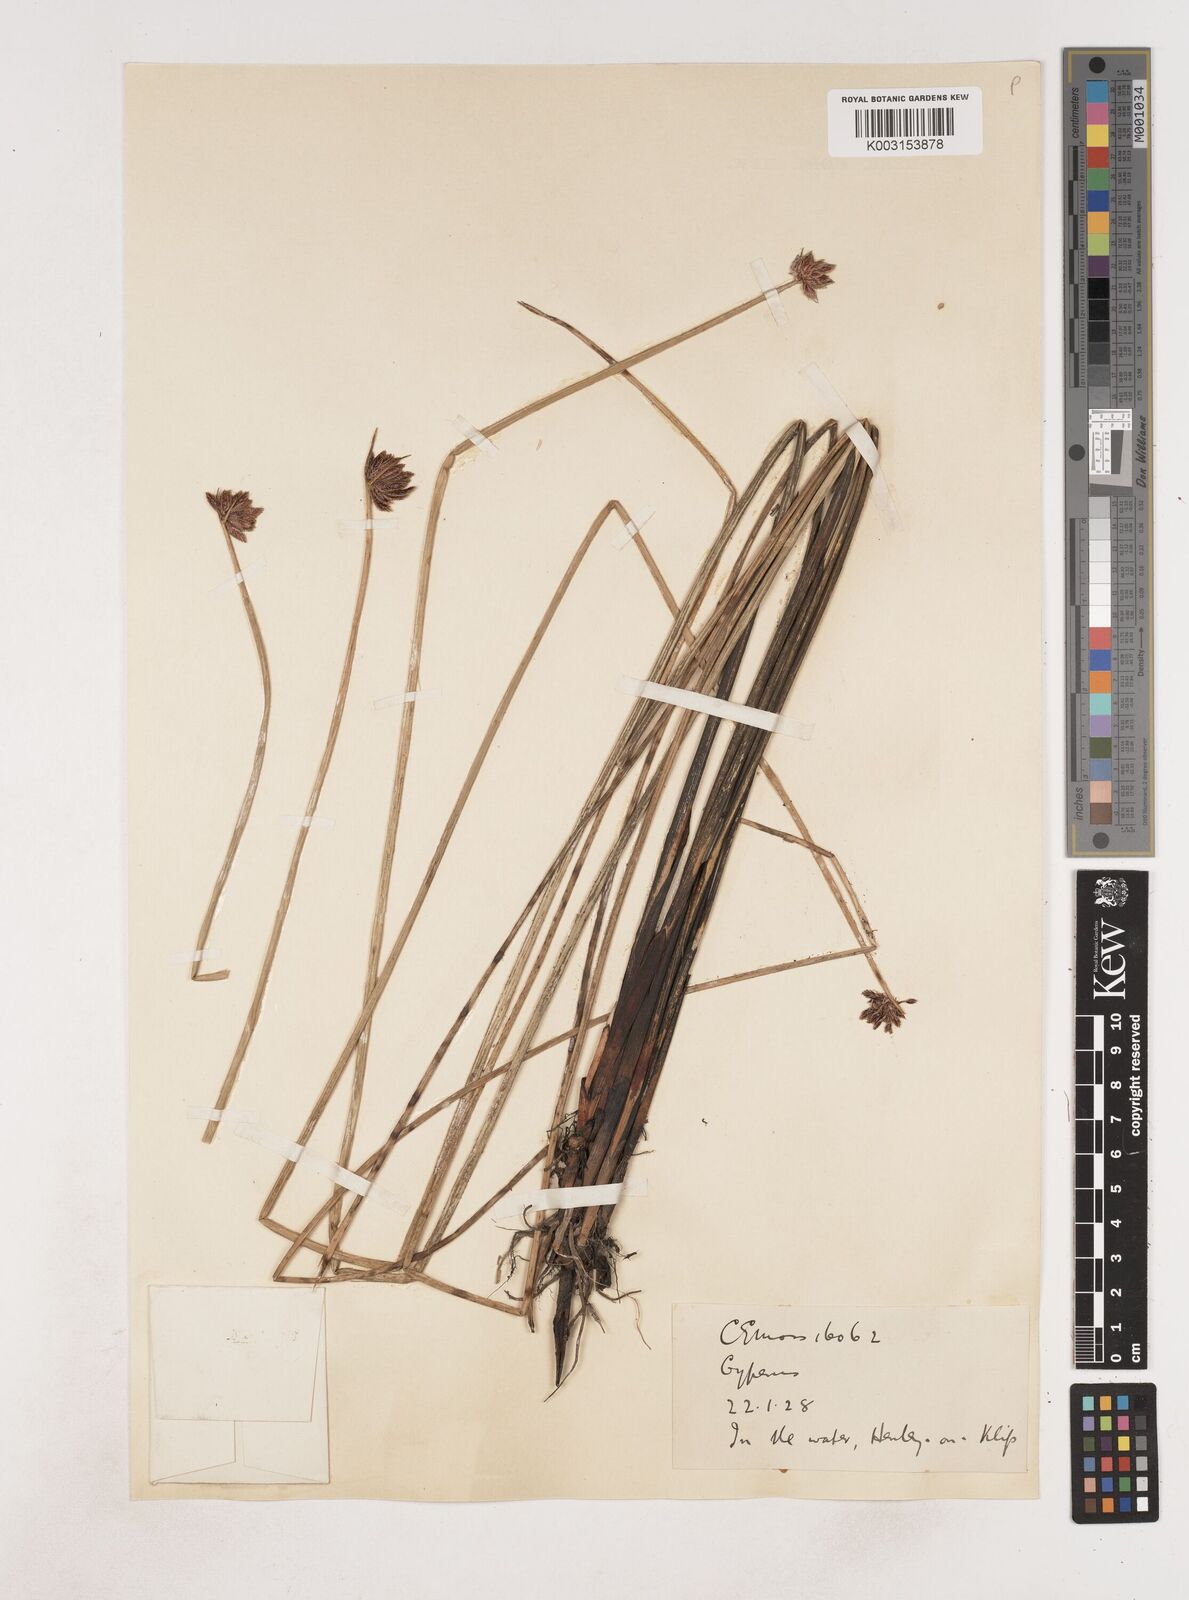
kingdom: Plantae
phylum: Tracheophyta
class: Liliopsida
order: Poales
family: Cyperaceae
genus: Cyperus
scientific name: Cyperus
